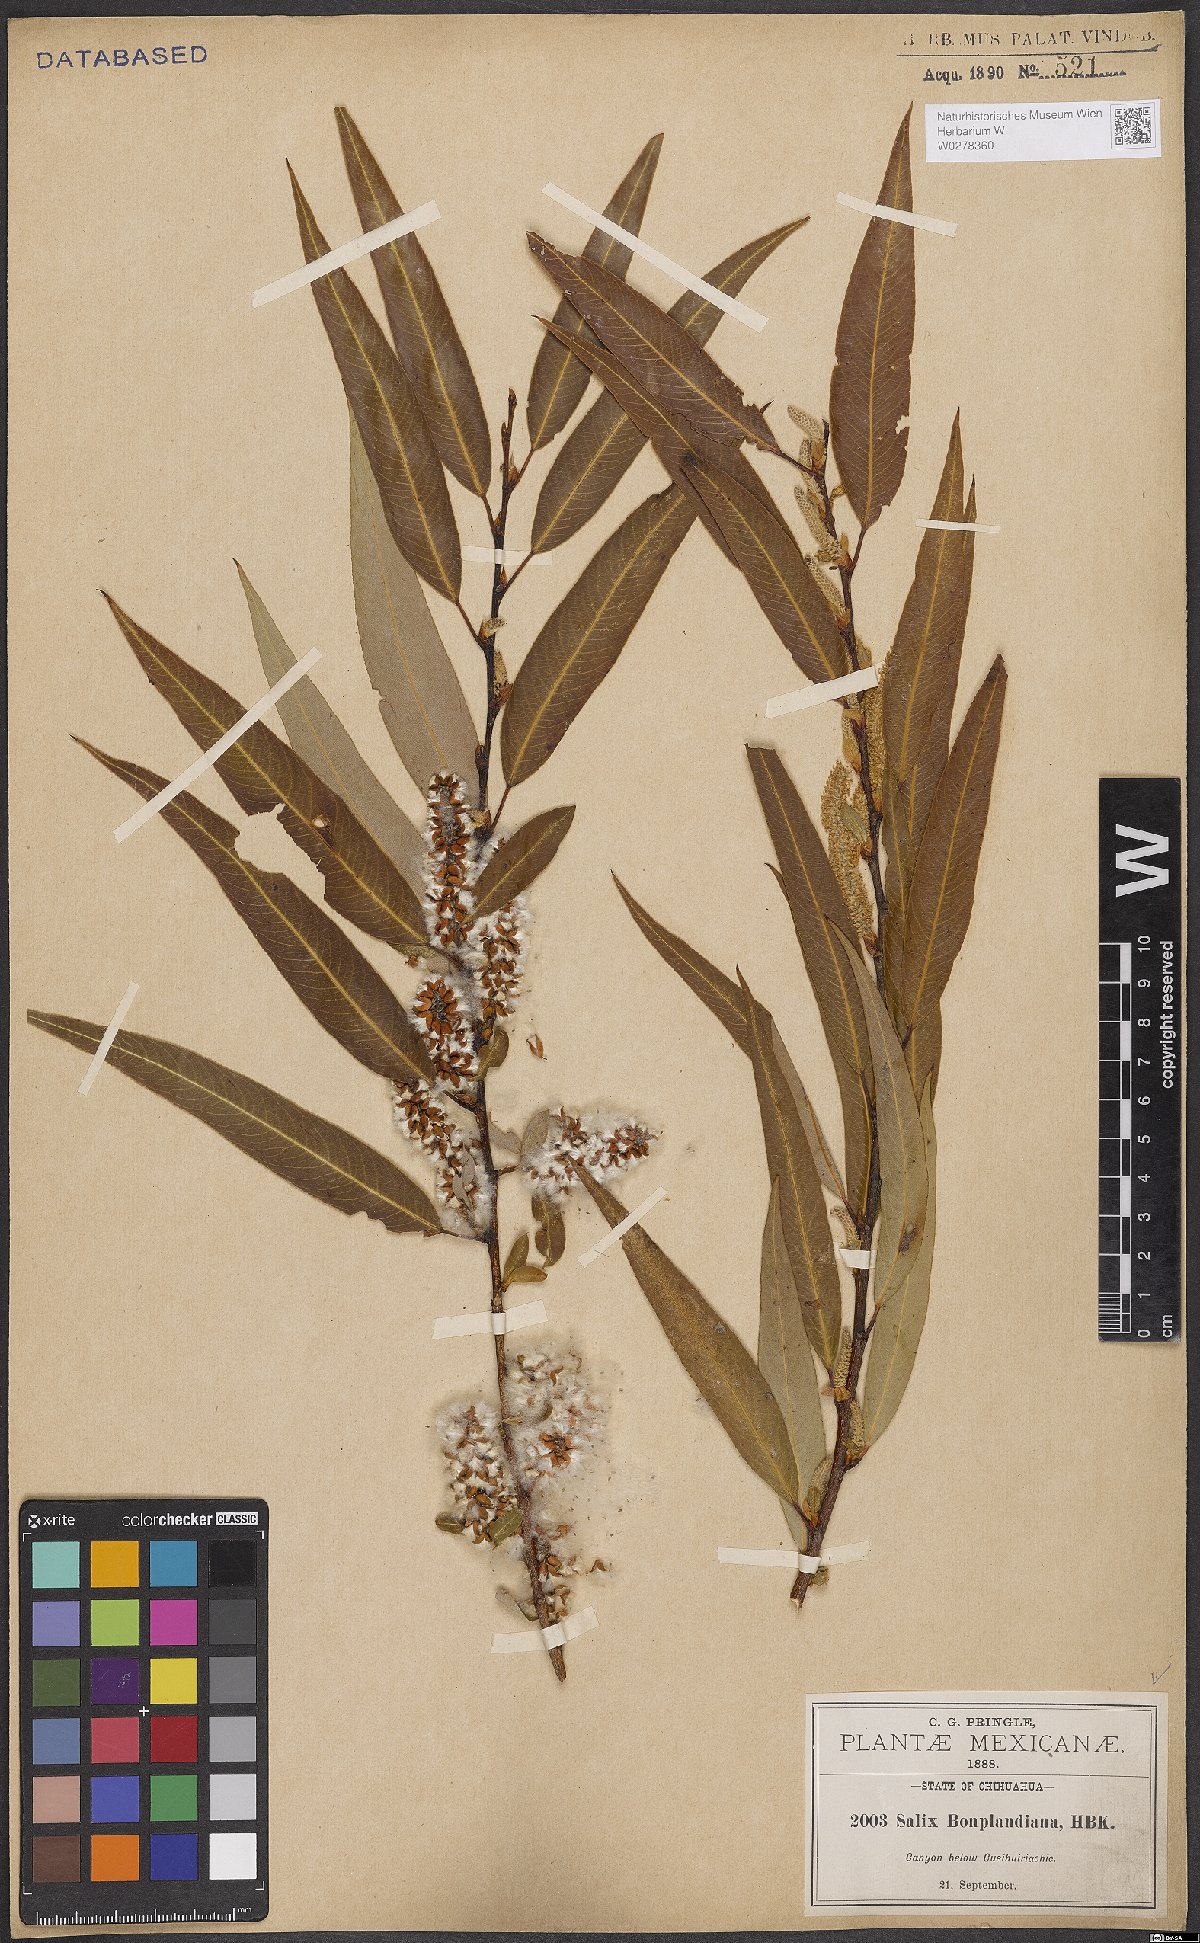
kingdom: Plantae
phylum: Tracheophyta
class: Magnoliopsida
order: Malpighiales
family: Salicaceae
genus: Salix
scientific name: Salix bonplandiana
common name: Bonpland’s willow
